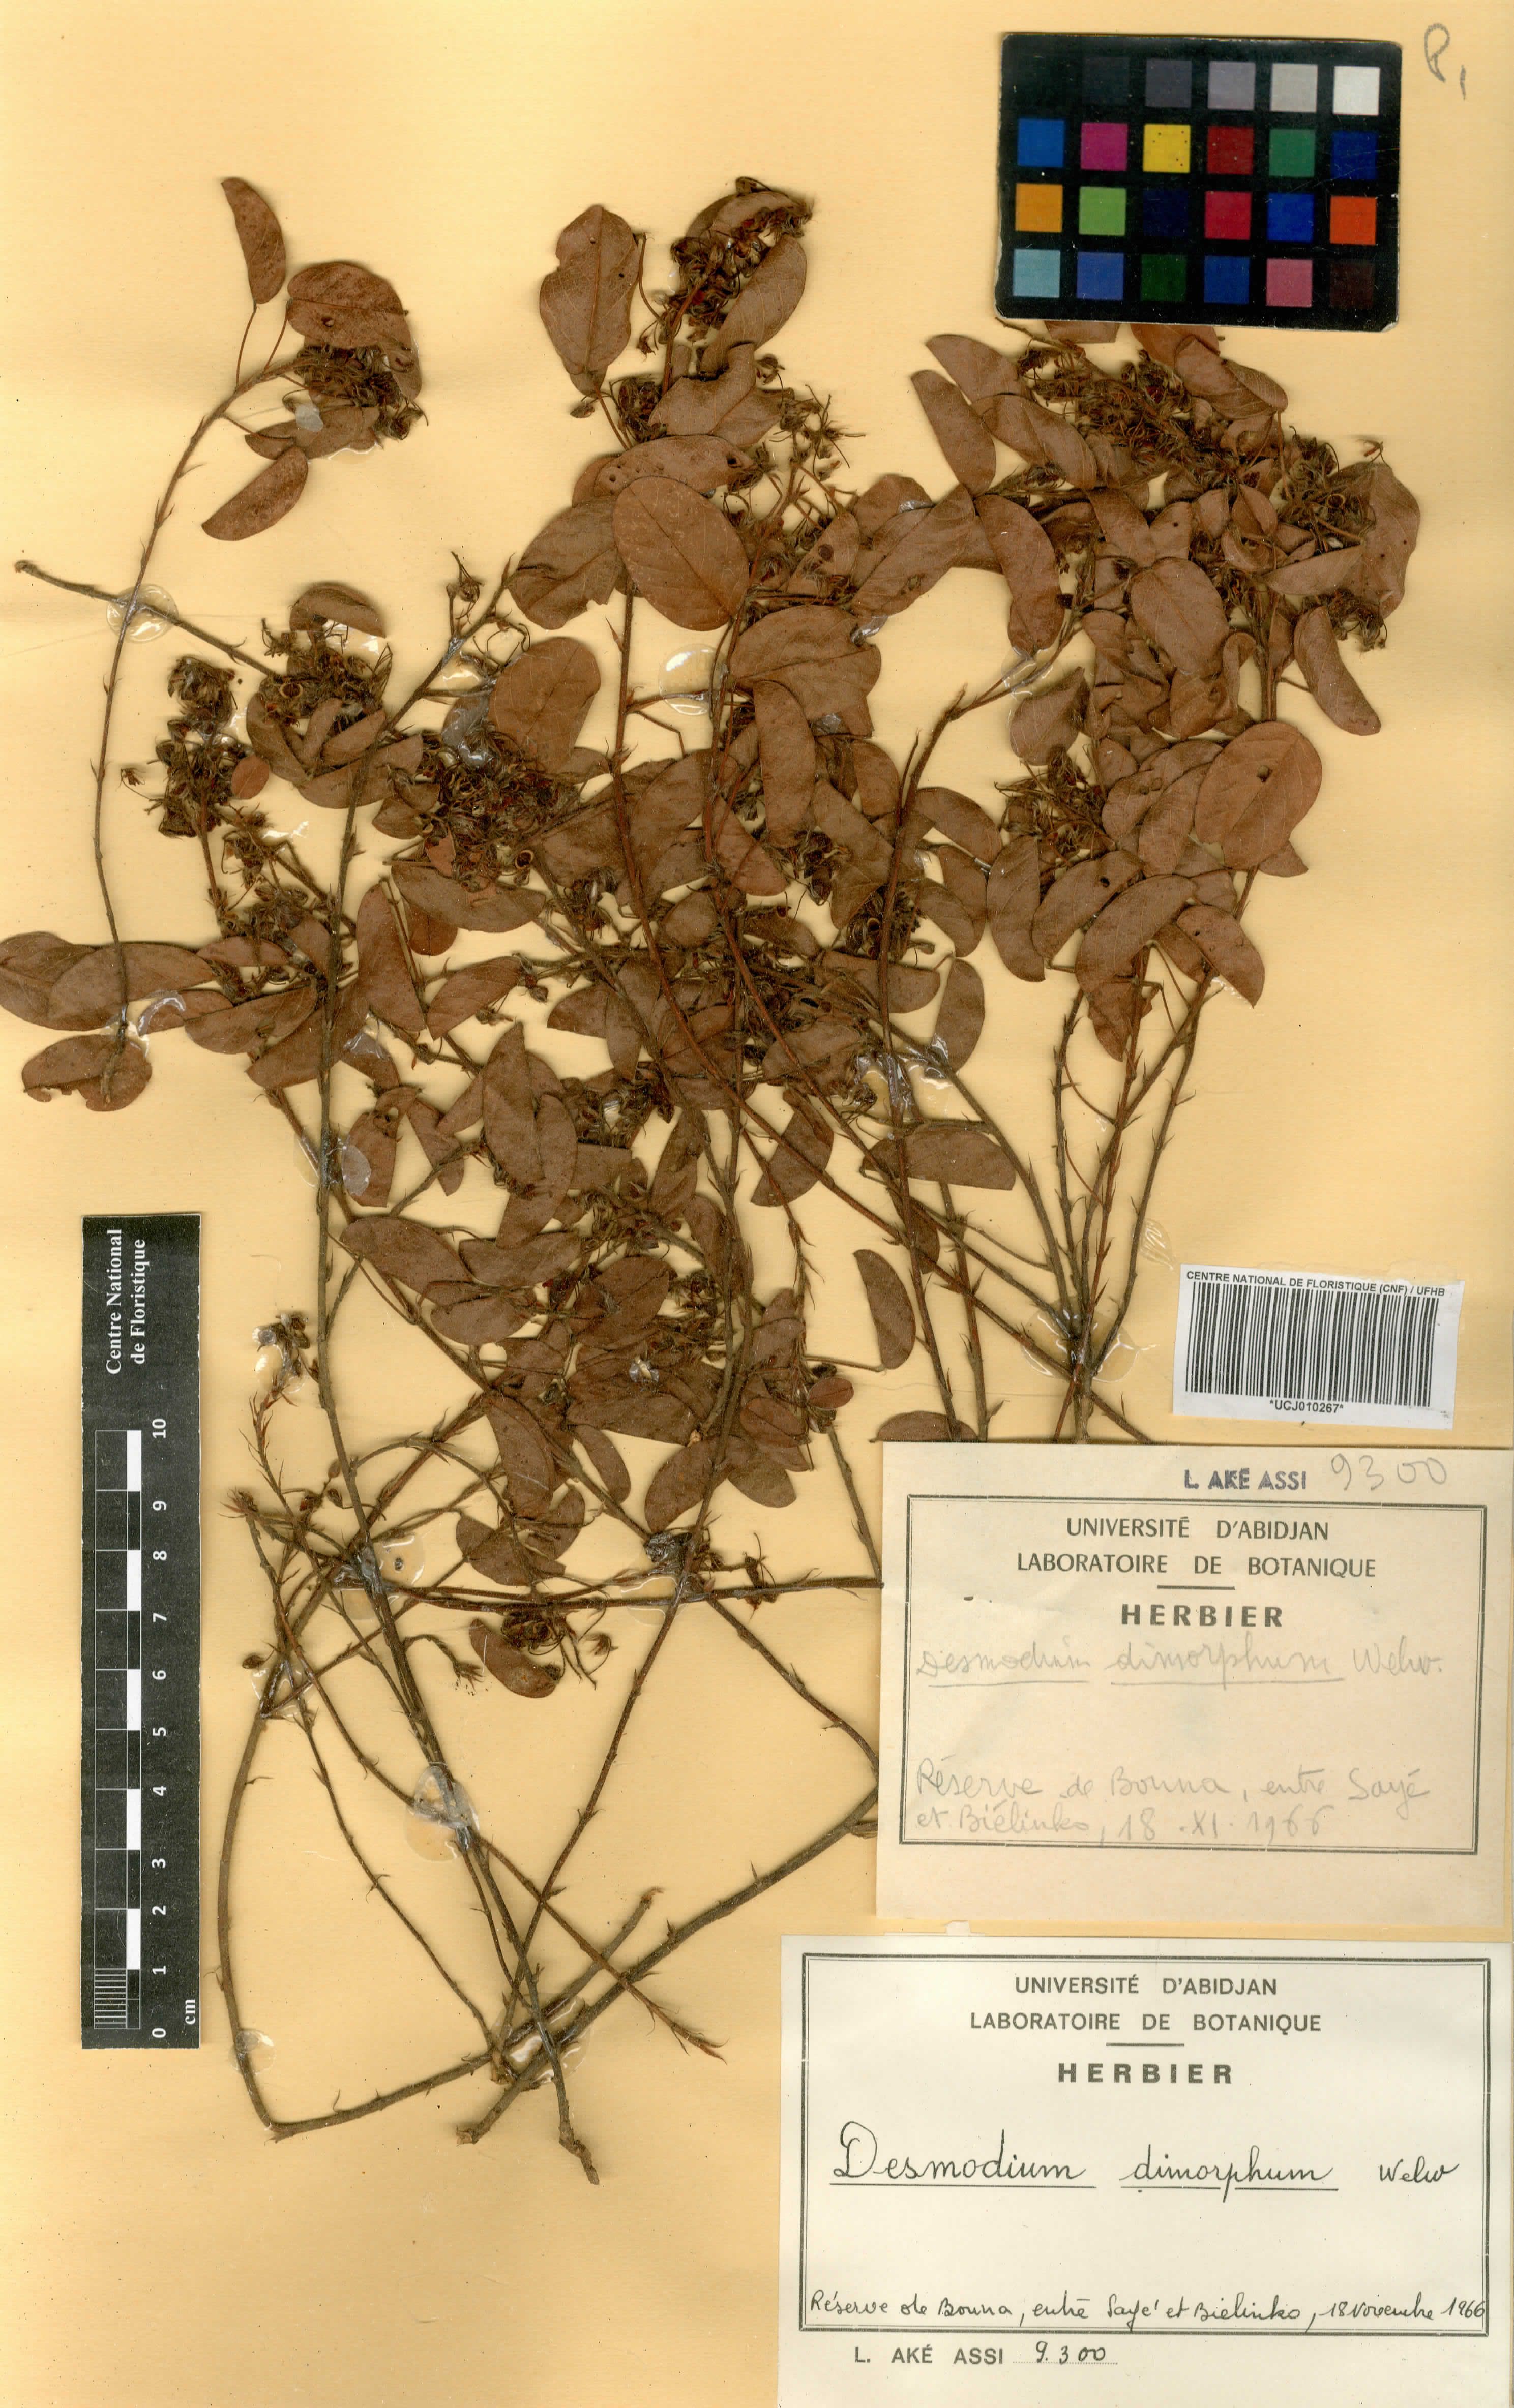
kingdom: Plantae
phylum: Tracheophyta
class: Magnoliopsida
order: Fabales
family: Fabaceae
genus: Grona
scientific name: Grona barbata
